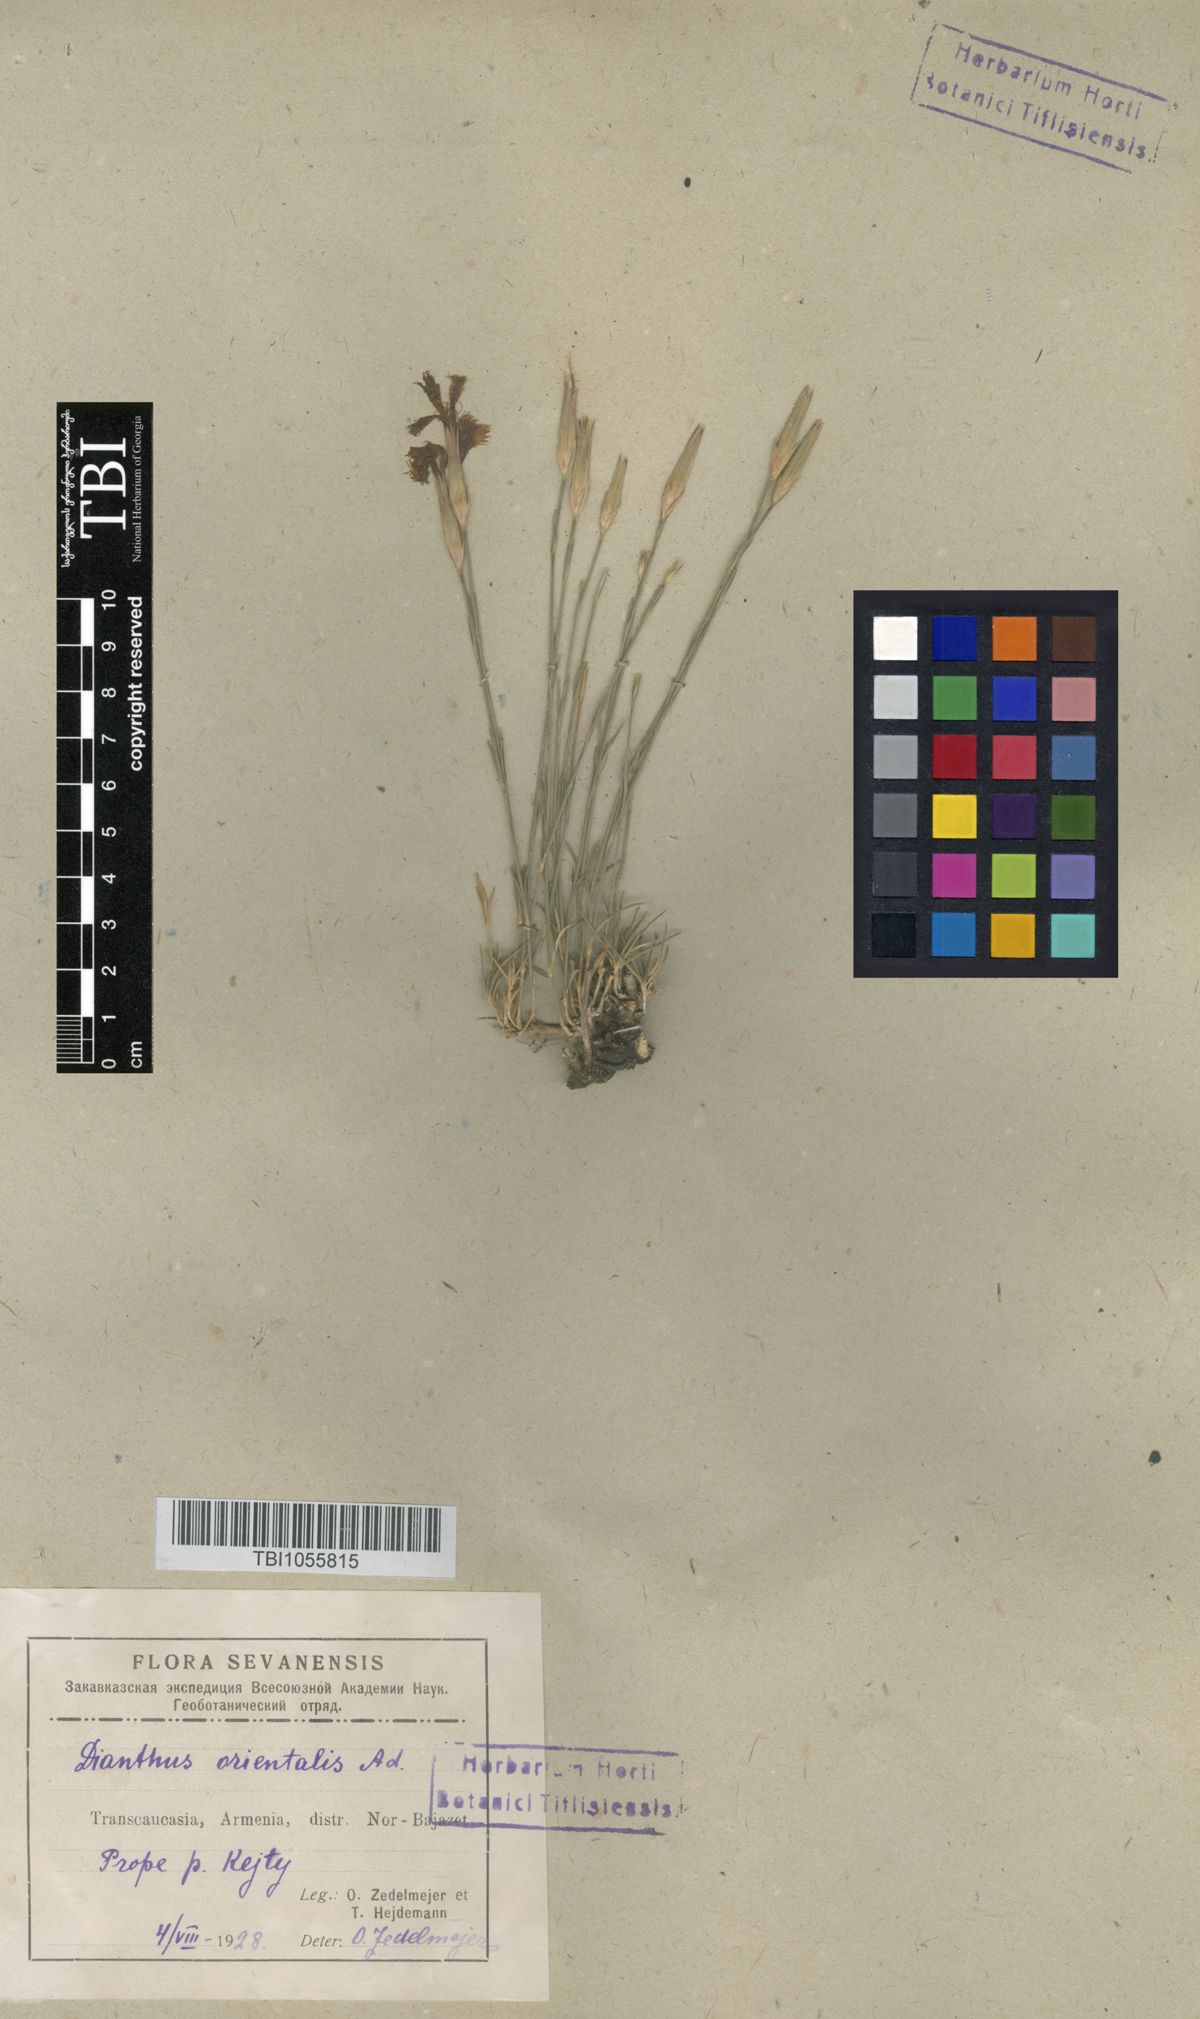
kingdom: Plantae
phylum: Tracheophyta
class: Magnoliopsida
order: Caryophyllales
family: Caryophyllaceae
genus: Dianthus
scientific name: Dianthus orientalis
